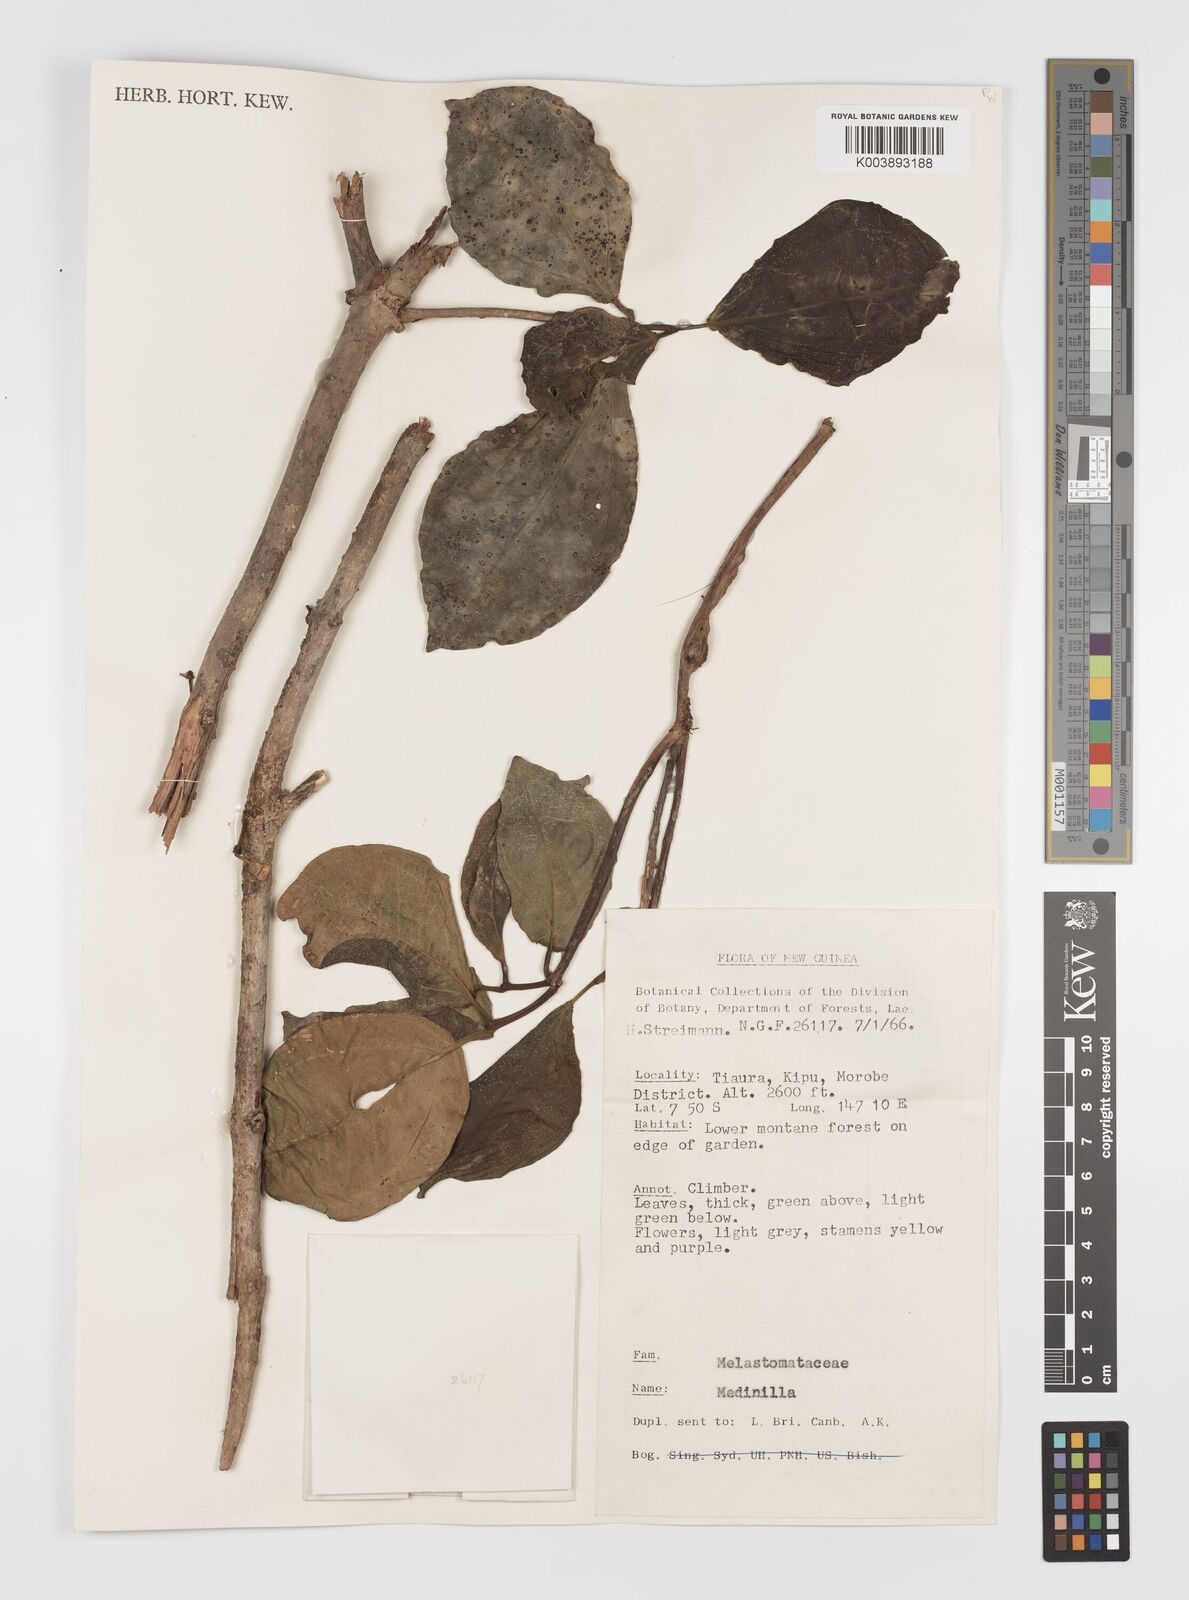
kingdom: Plantae
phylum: Tracheophyta
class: Magnoliopsida
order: Myrtales
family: Melastomataceae
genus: Medinilla
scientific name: Medinilla
